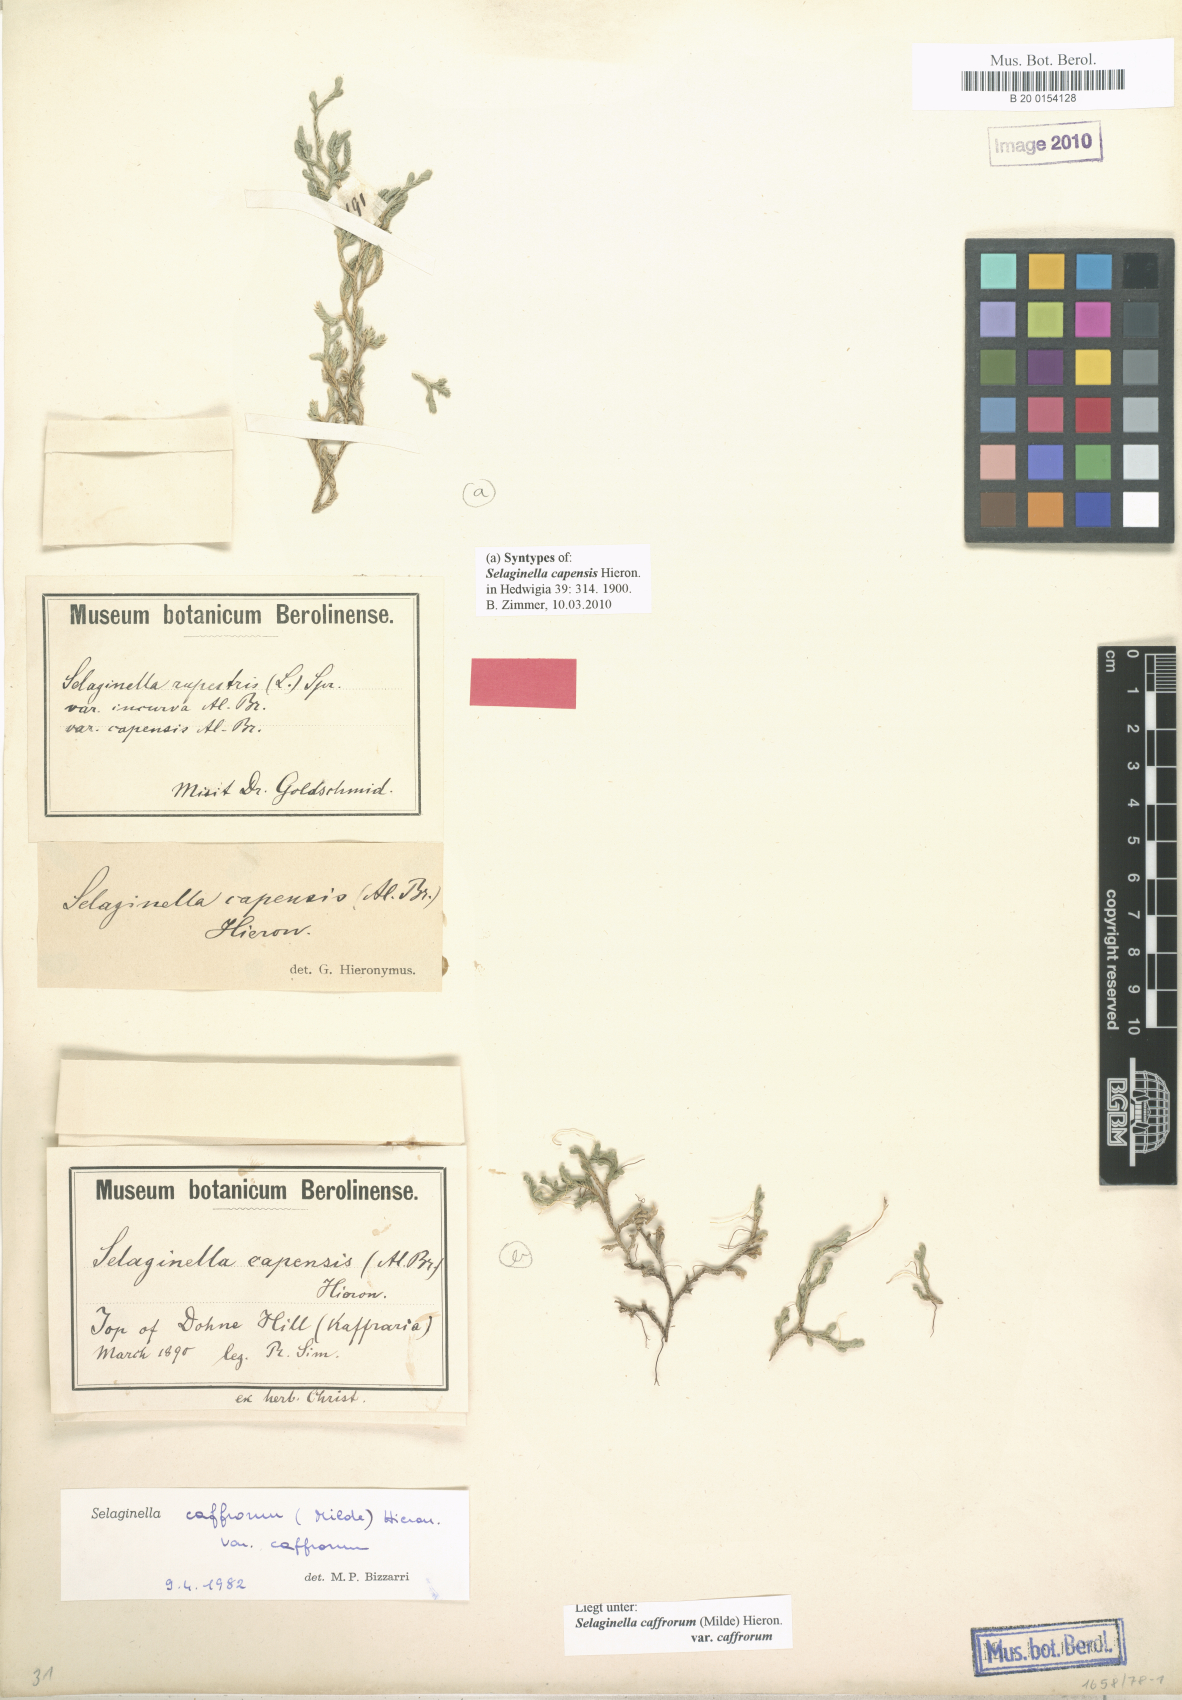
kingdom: Plantae
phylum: Tracheophyta
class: Lycopodiopsida
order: Selaginellales
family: Selaginellaceae
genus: Selaginella
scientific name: Selaginella caffrorum
